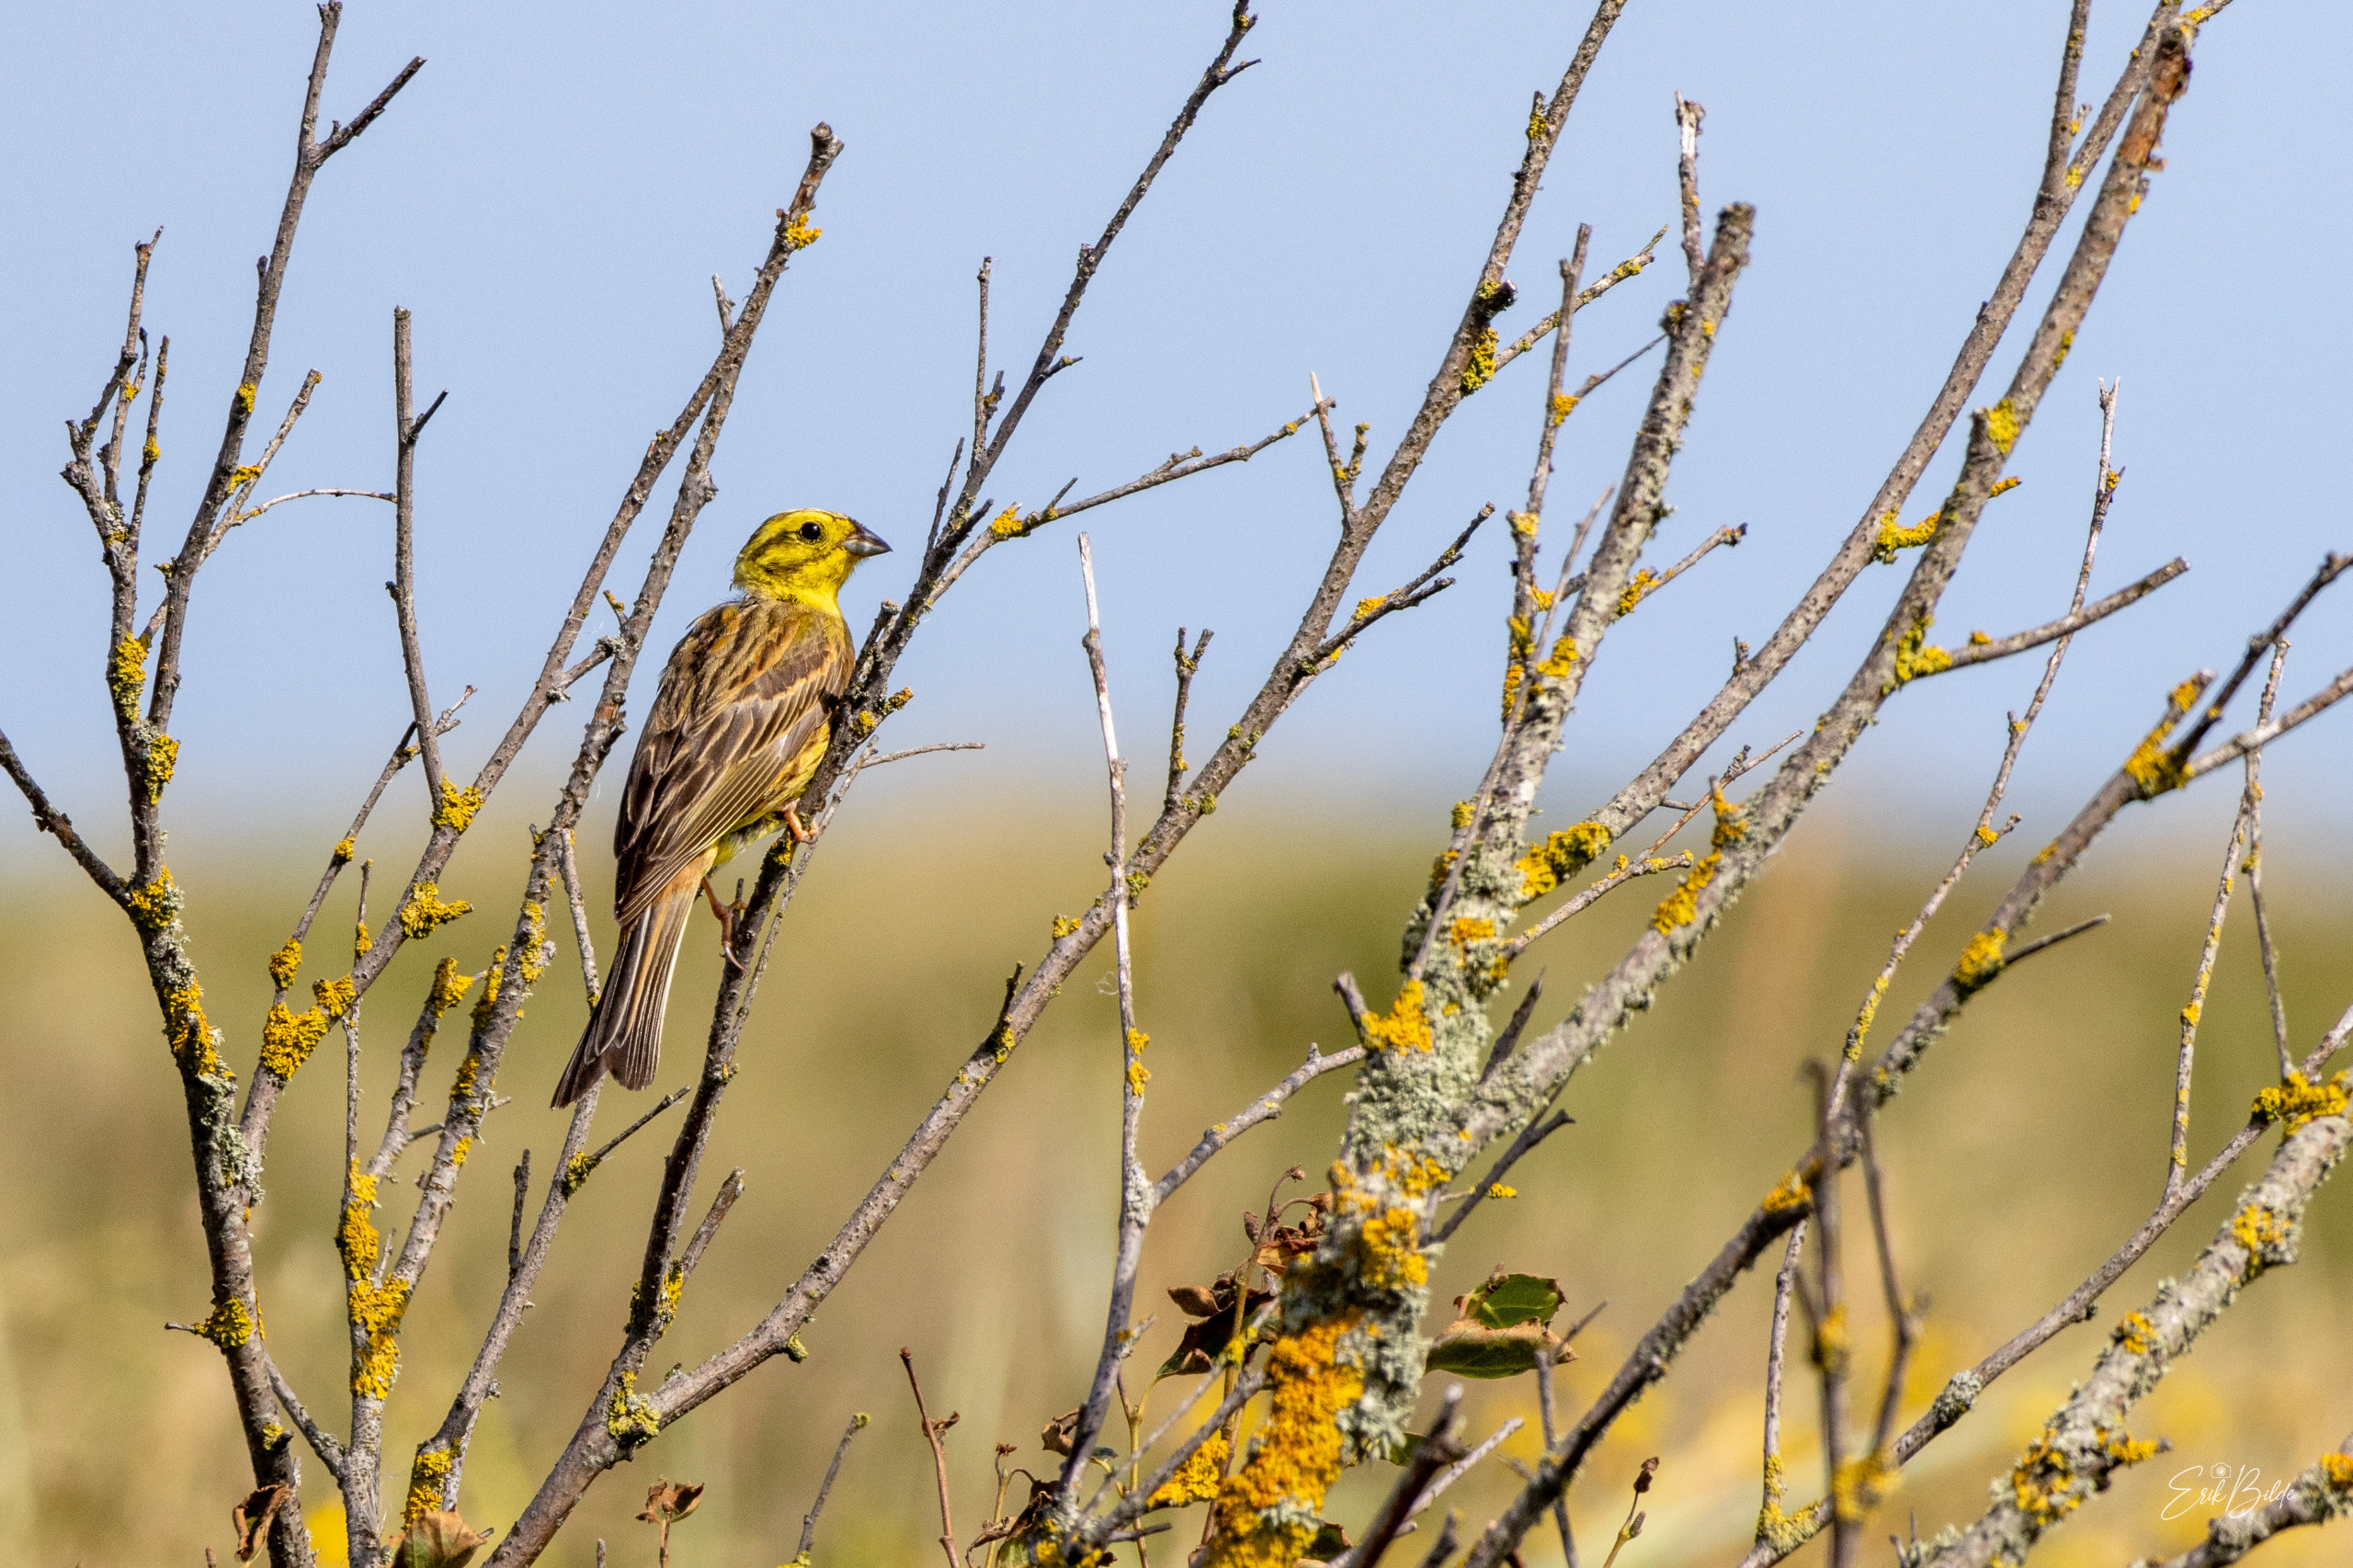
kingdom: Animalia
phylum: Chordata
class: Aves
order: Passeriformes
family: Emberizidae
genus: Emberiza
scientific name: Emberiza citrinella
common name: Gulspurv
